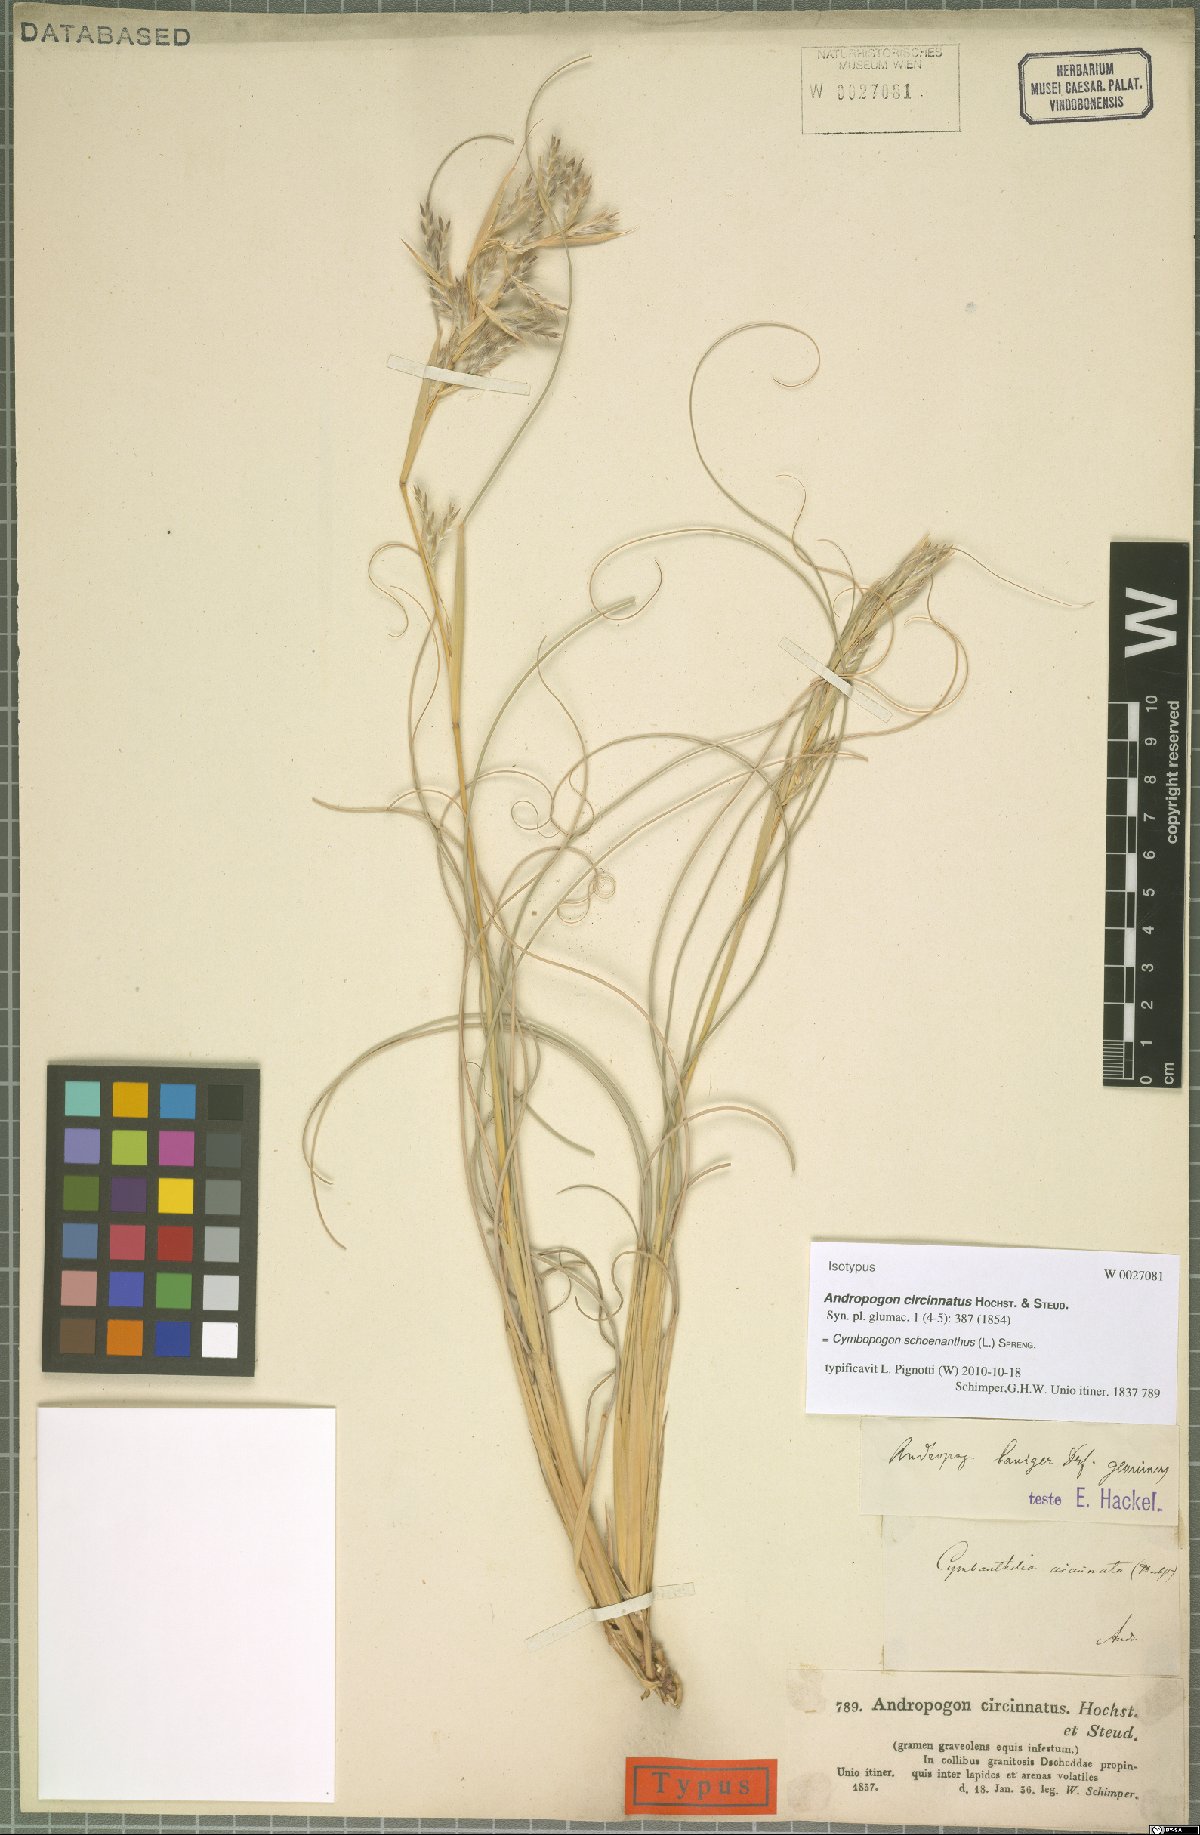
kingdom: Plantae
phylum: Tracheophyta
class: Liliopsida
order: Poales
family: Poaceae
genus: Cymbopogon
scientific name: Cymbopogon schoenanthus
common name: Geranium grass
